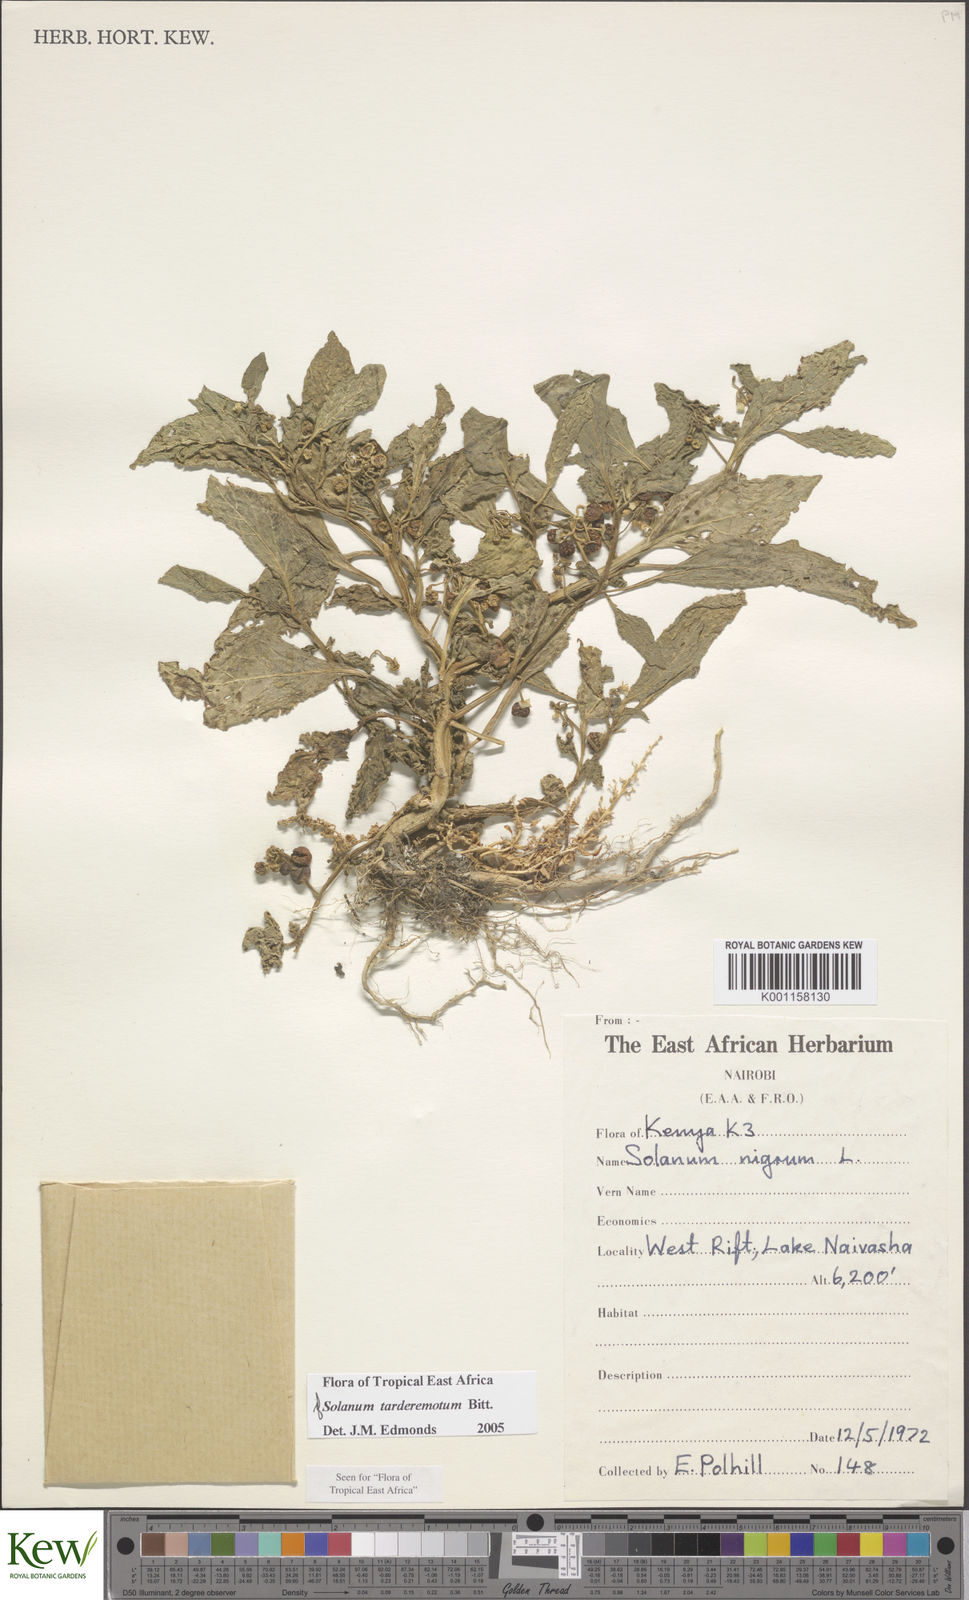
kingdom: Plantae
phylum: Tracheophyta
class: Magnoliopsida
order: Solanales
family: Solanaceae
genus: Solanum
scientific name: Solanum tarderemotum
